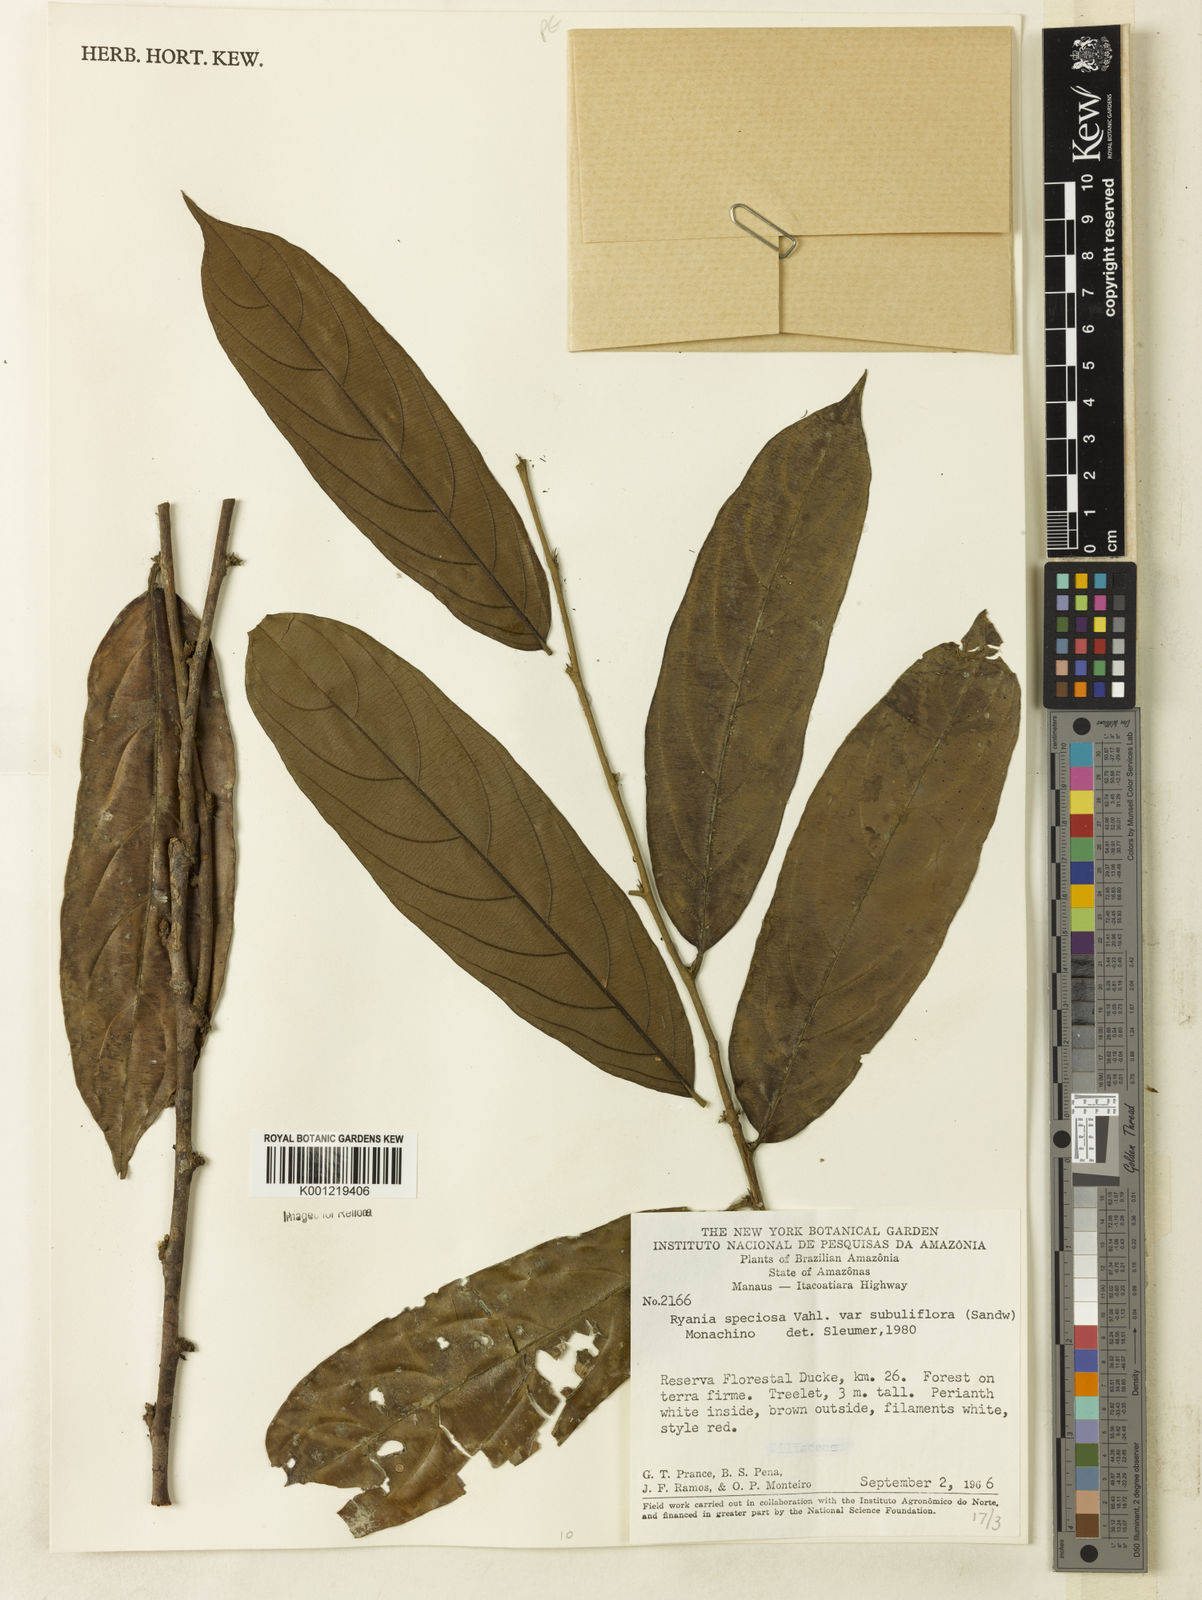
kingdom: Plantae
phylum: Tracheophyta
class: Magnoliopsida
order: Malpighiales
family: Salicaceae
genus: Ryania
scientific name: Ryania speciosa
